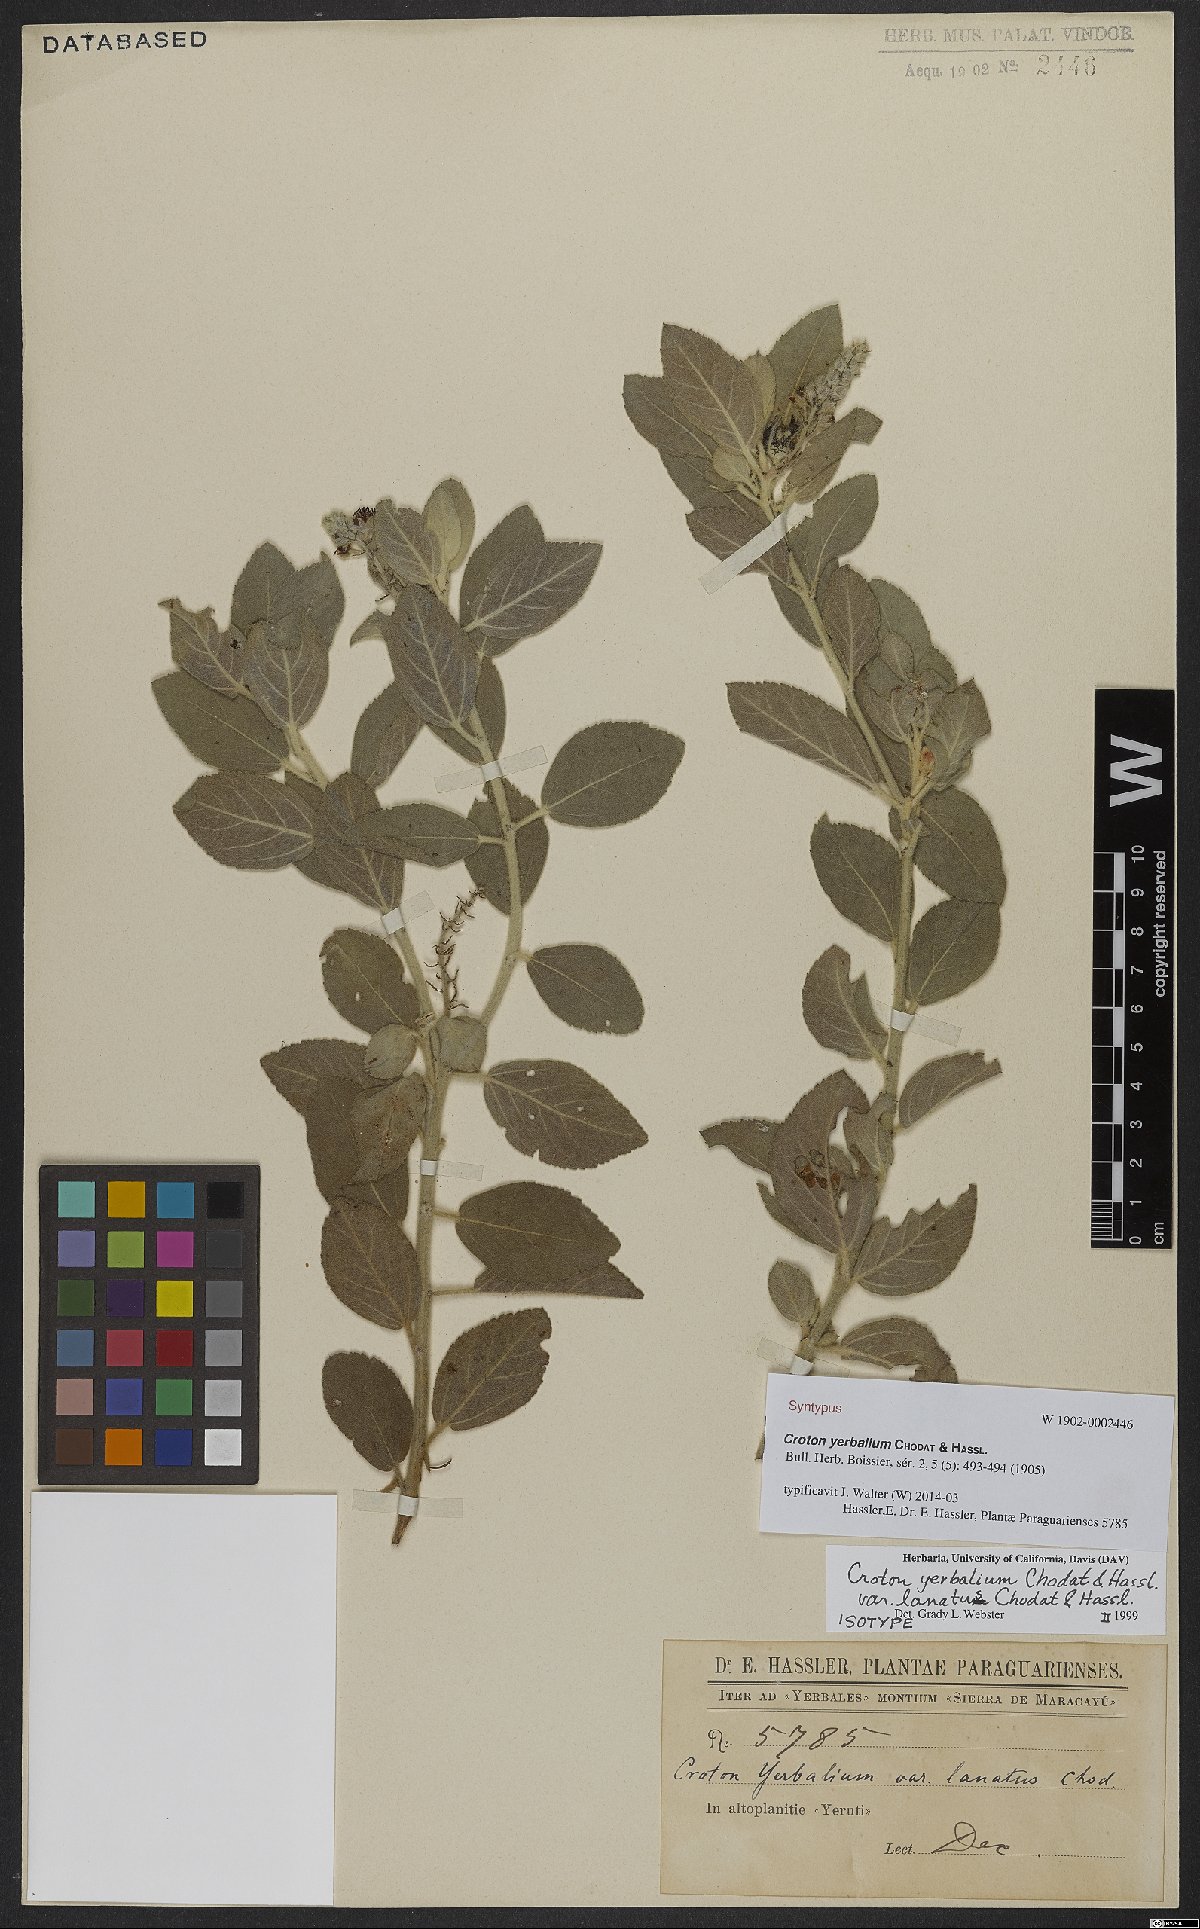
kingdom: Plantae
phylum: Tracheophyta
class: Magnoliopsida
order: Malpighiales
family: Euphorbiaceae
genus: Croton
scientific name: Croton yerbalium
